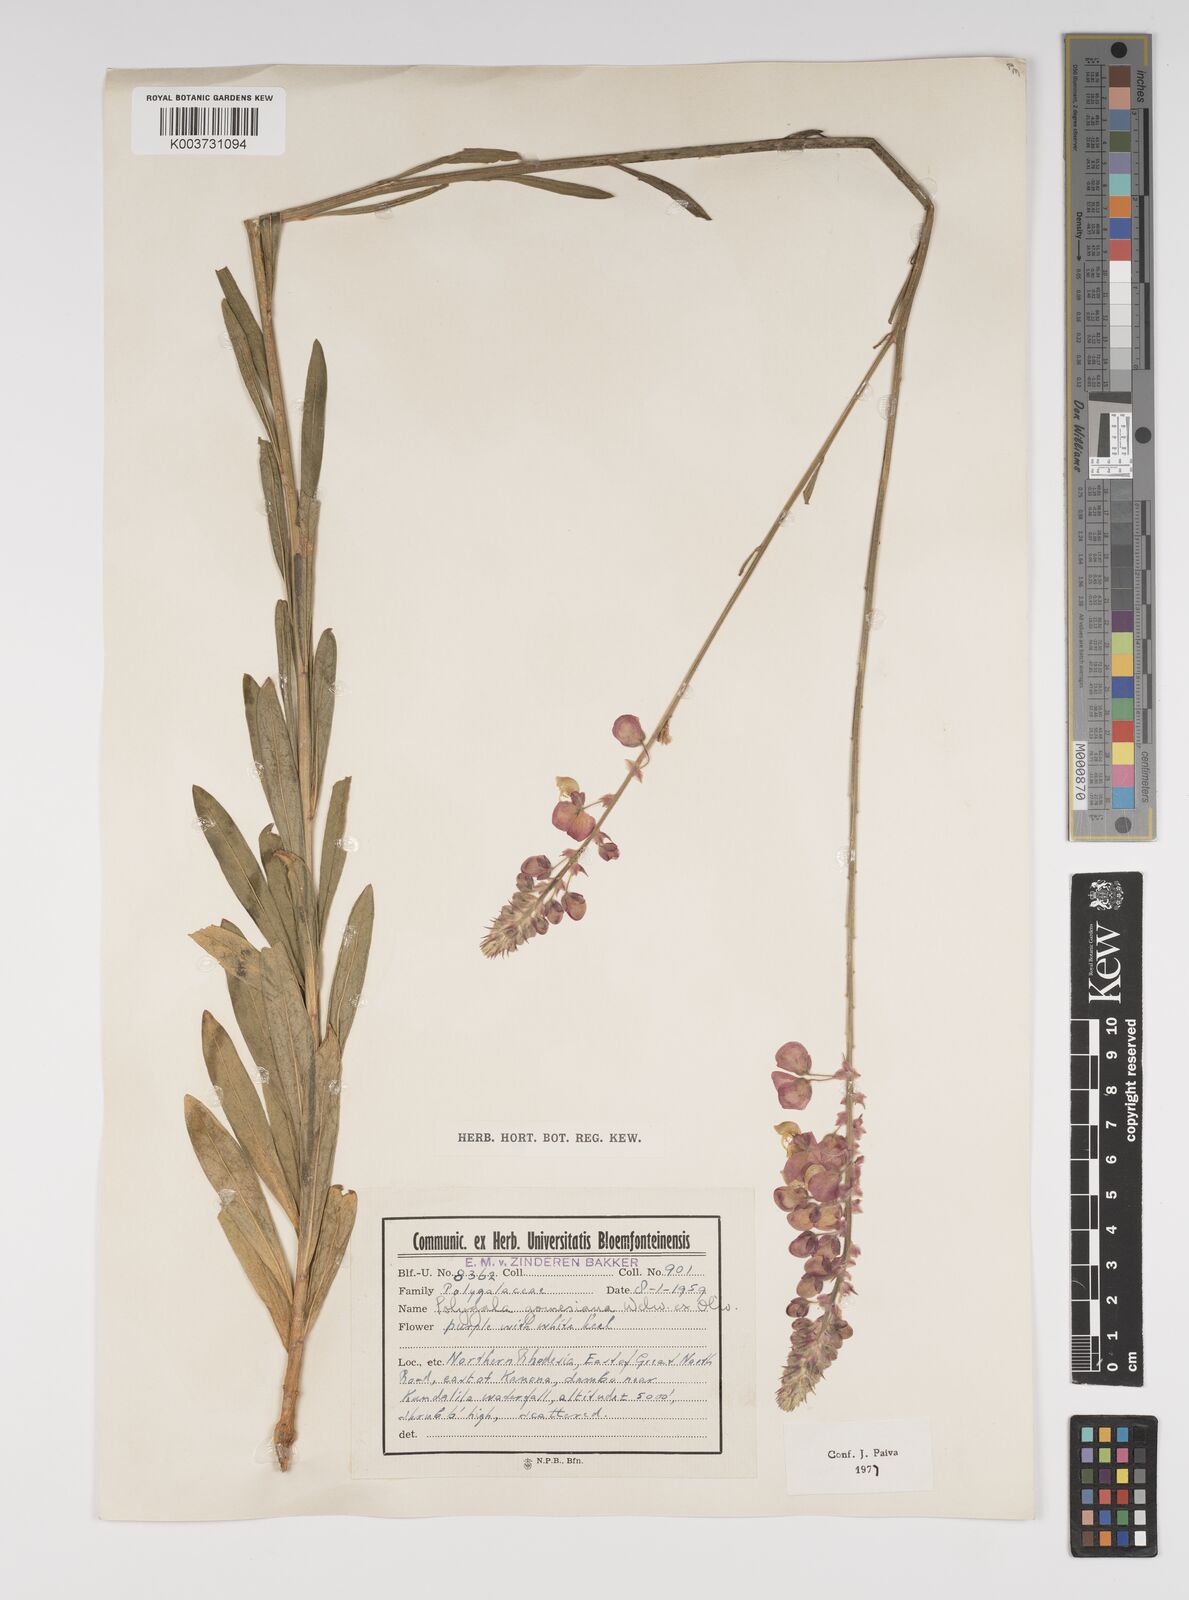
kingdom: Plantae
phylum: Tracheophyta
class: Magnoliopsida
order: Fabales
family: Polygalaceae
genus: Polygala
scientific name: Polygala gomesiana
